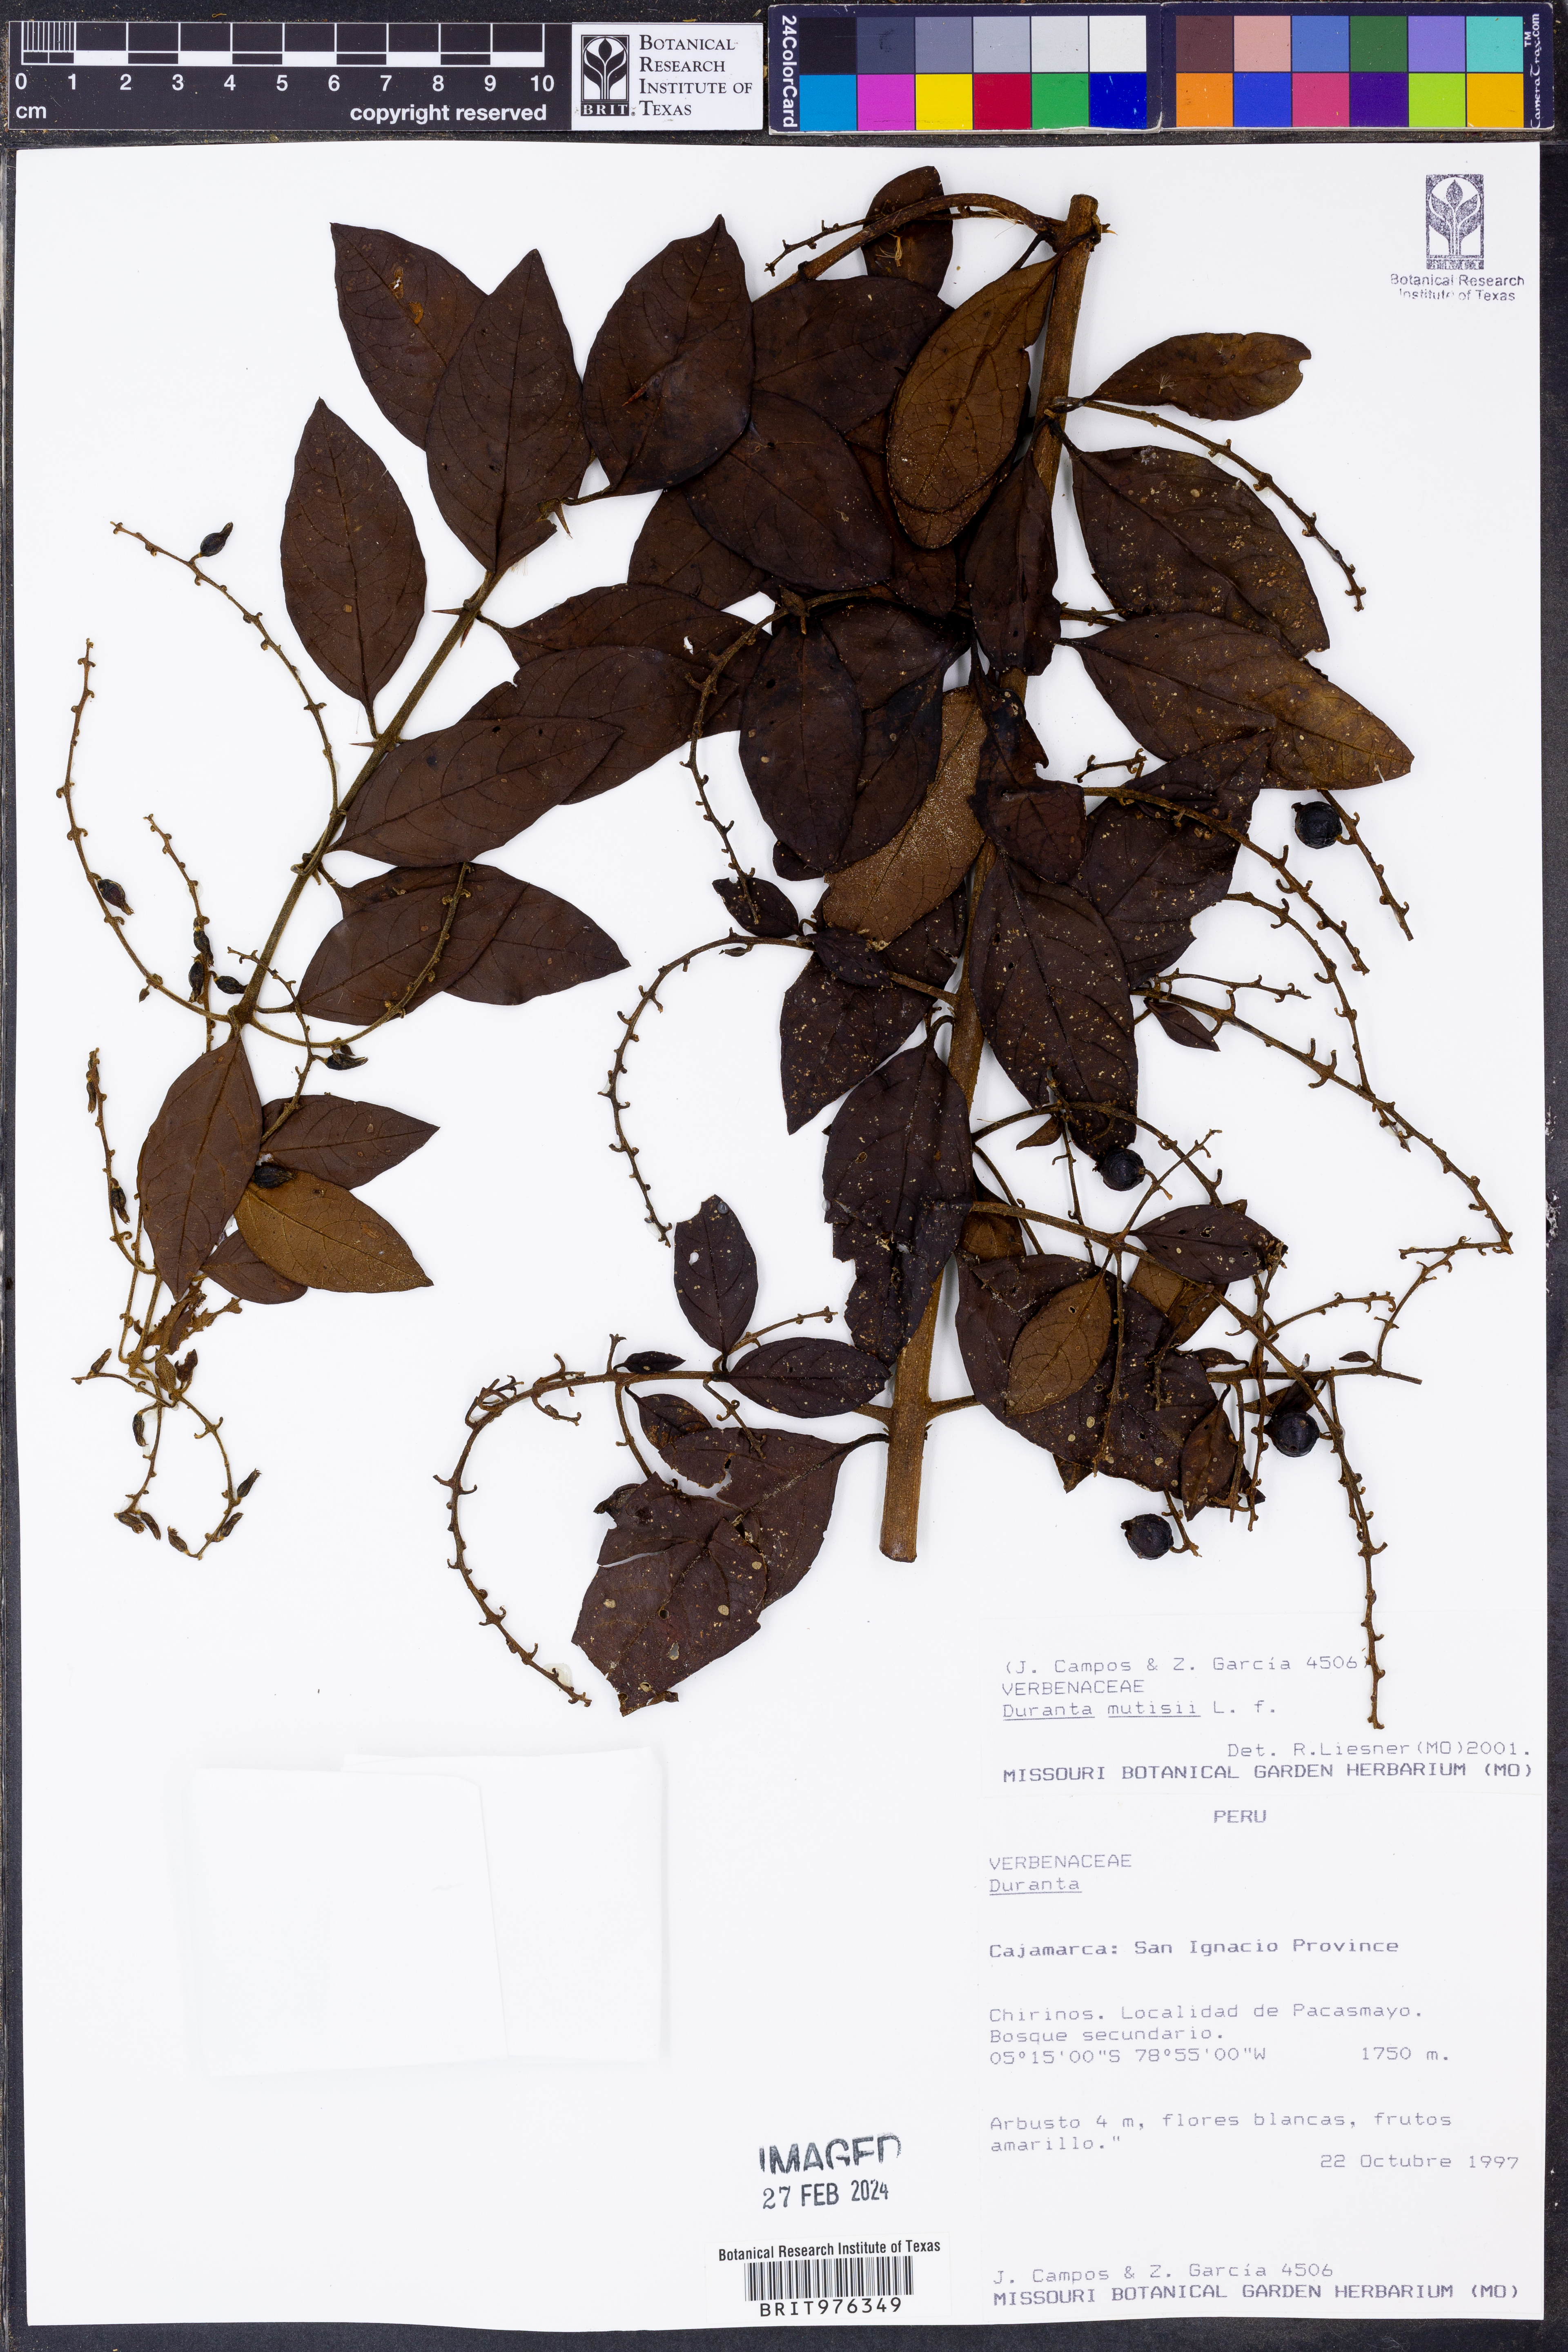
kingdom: Plantae
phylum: Tracheophyta
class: Magnoliopsida
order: Lamiales
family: Verbenaceae
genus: Duranta
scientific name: Duranta
